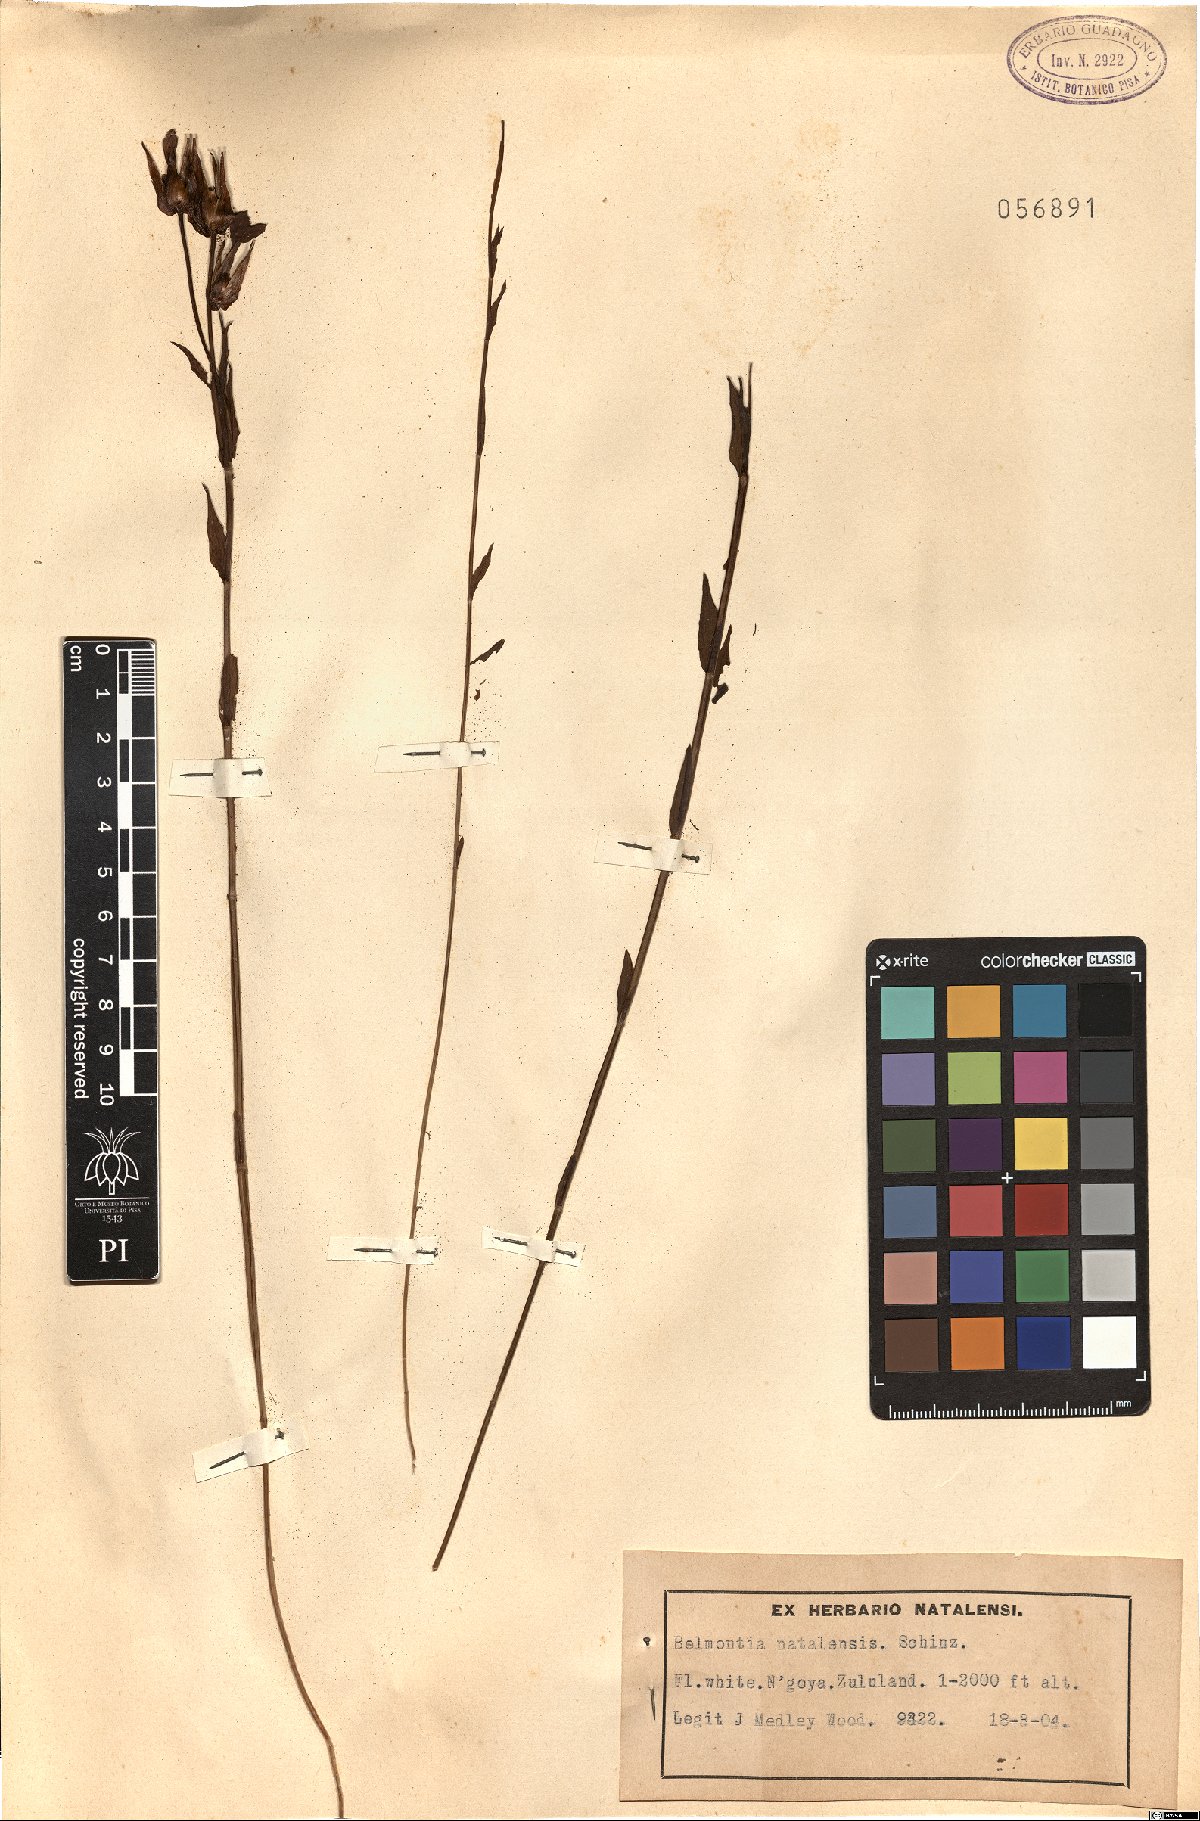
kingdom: Plantae
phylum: Tracheophyta
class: Magnoliopsida
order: Gentianales
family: Gentianaceae
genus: Exochaenium
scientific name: Exochaenium grande
